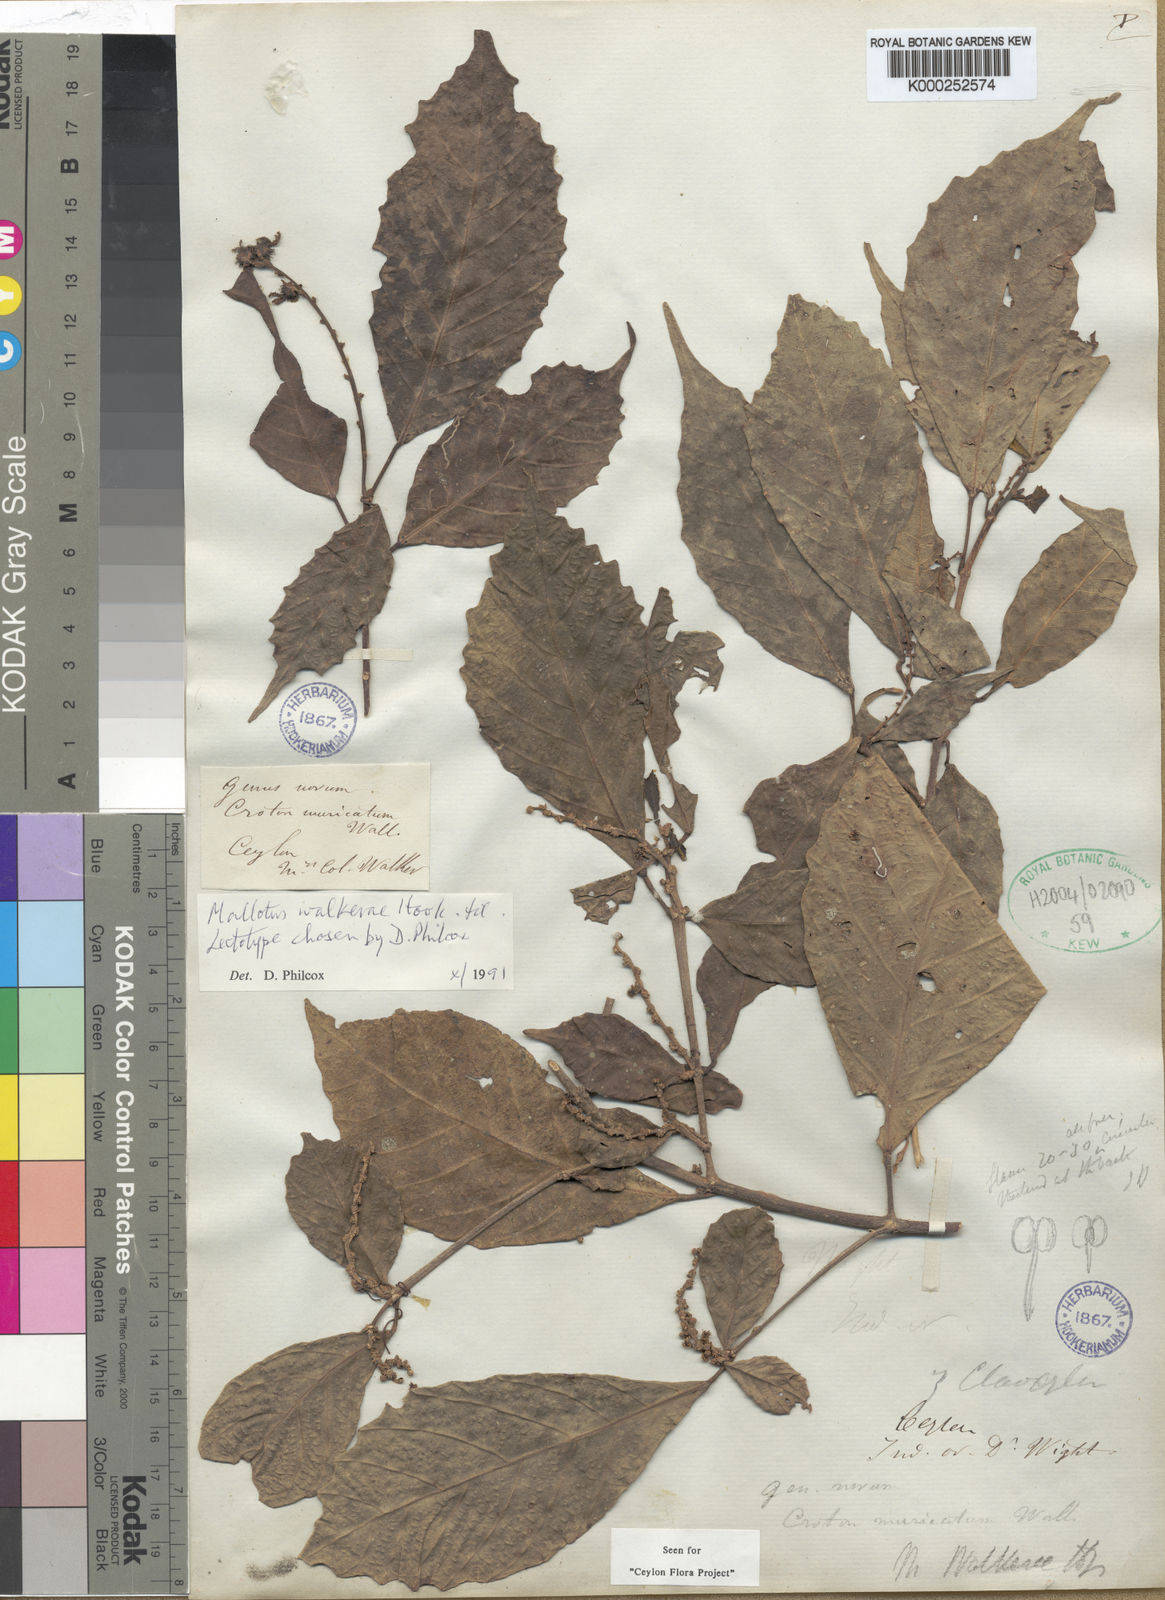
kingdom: Plantae
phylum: Tracheophyta
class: Magnoliopsida
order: Malpighiales
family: Euphorbiaceae
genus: Mallotus
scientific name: Mallotus resinosus
